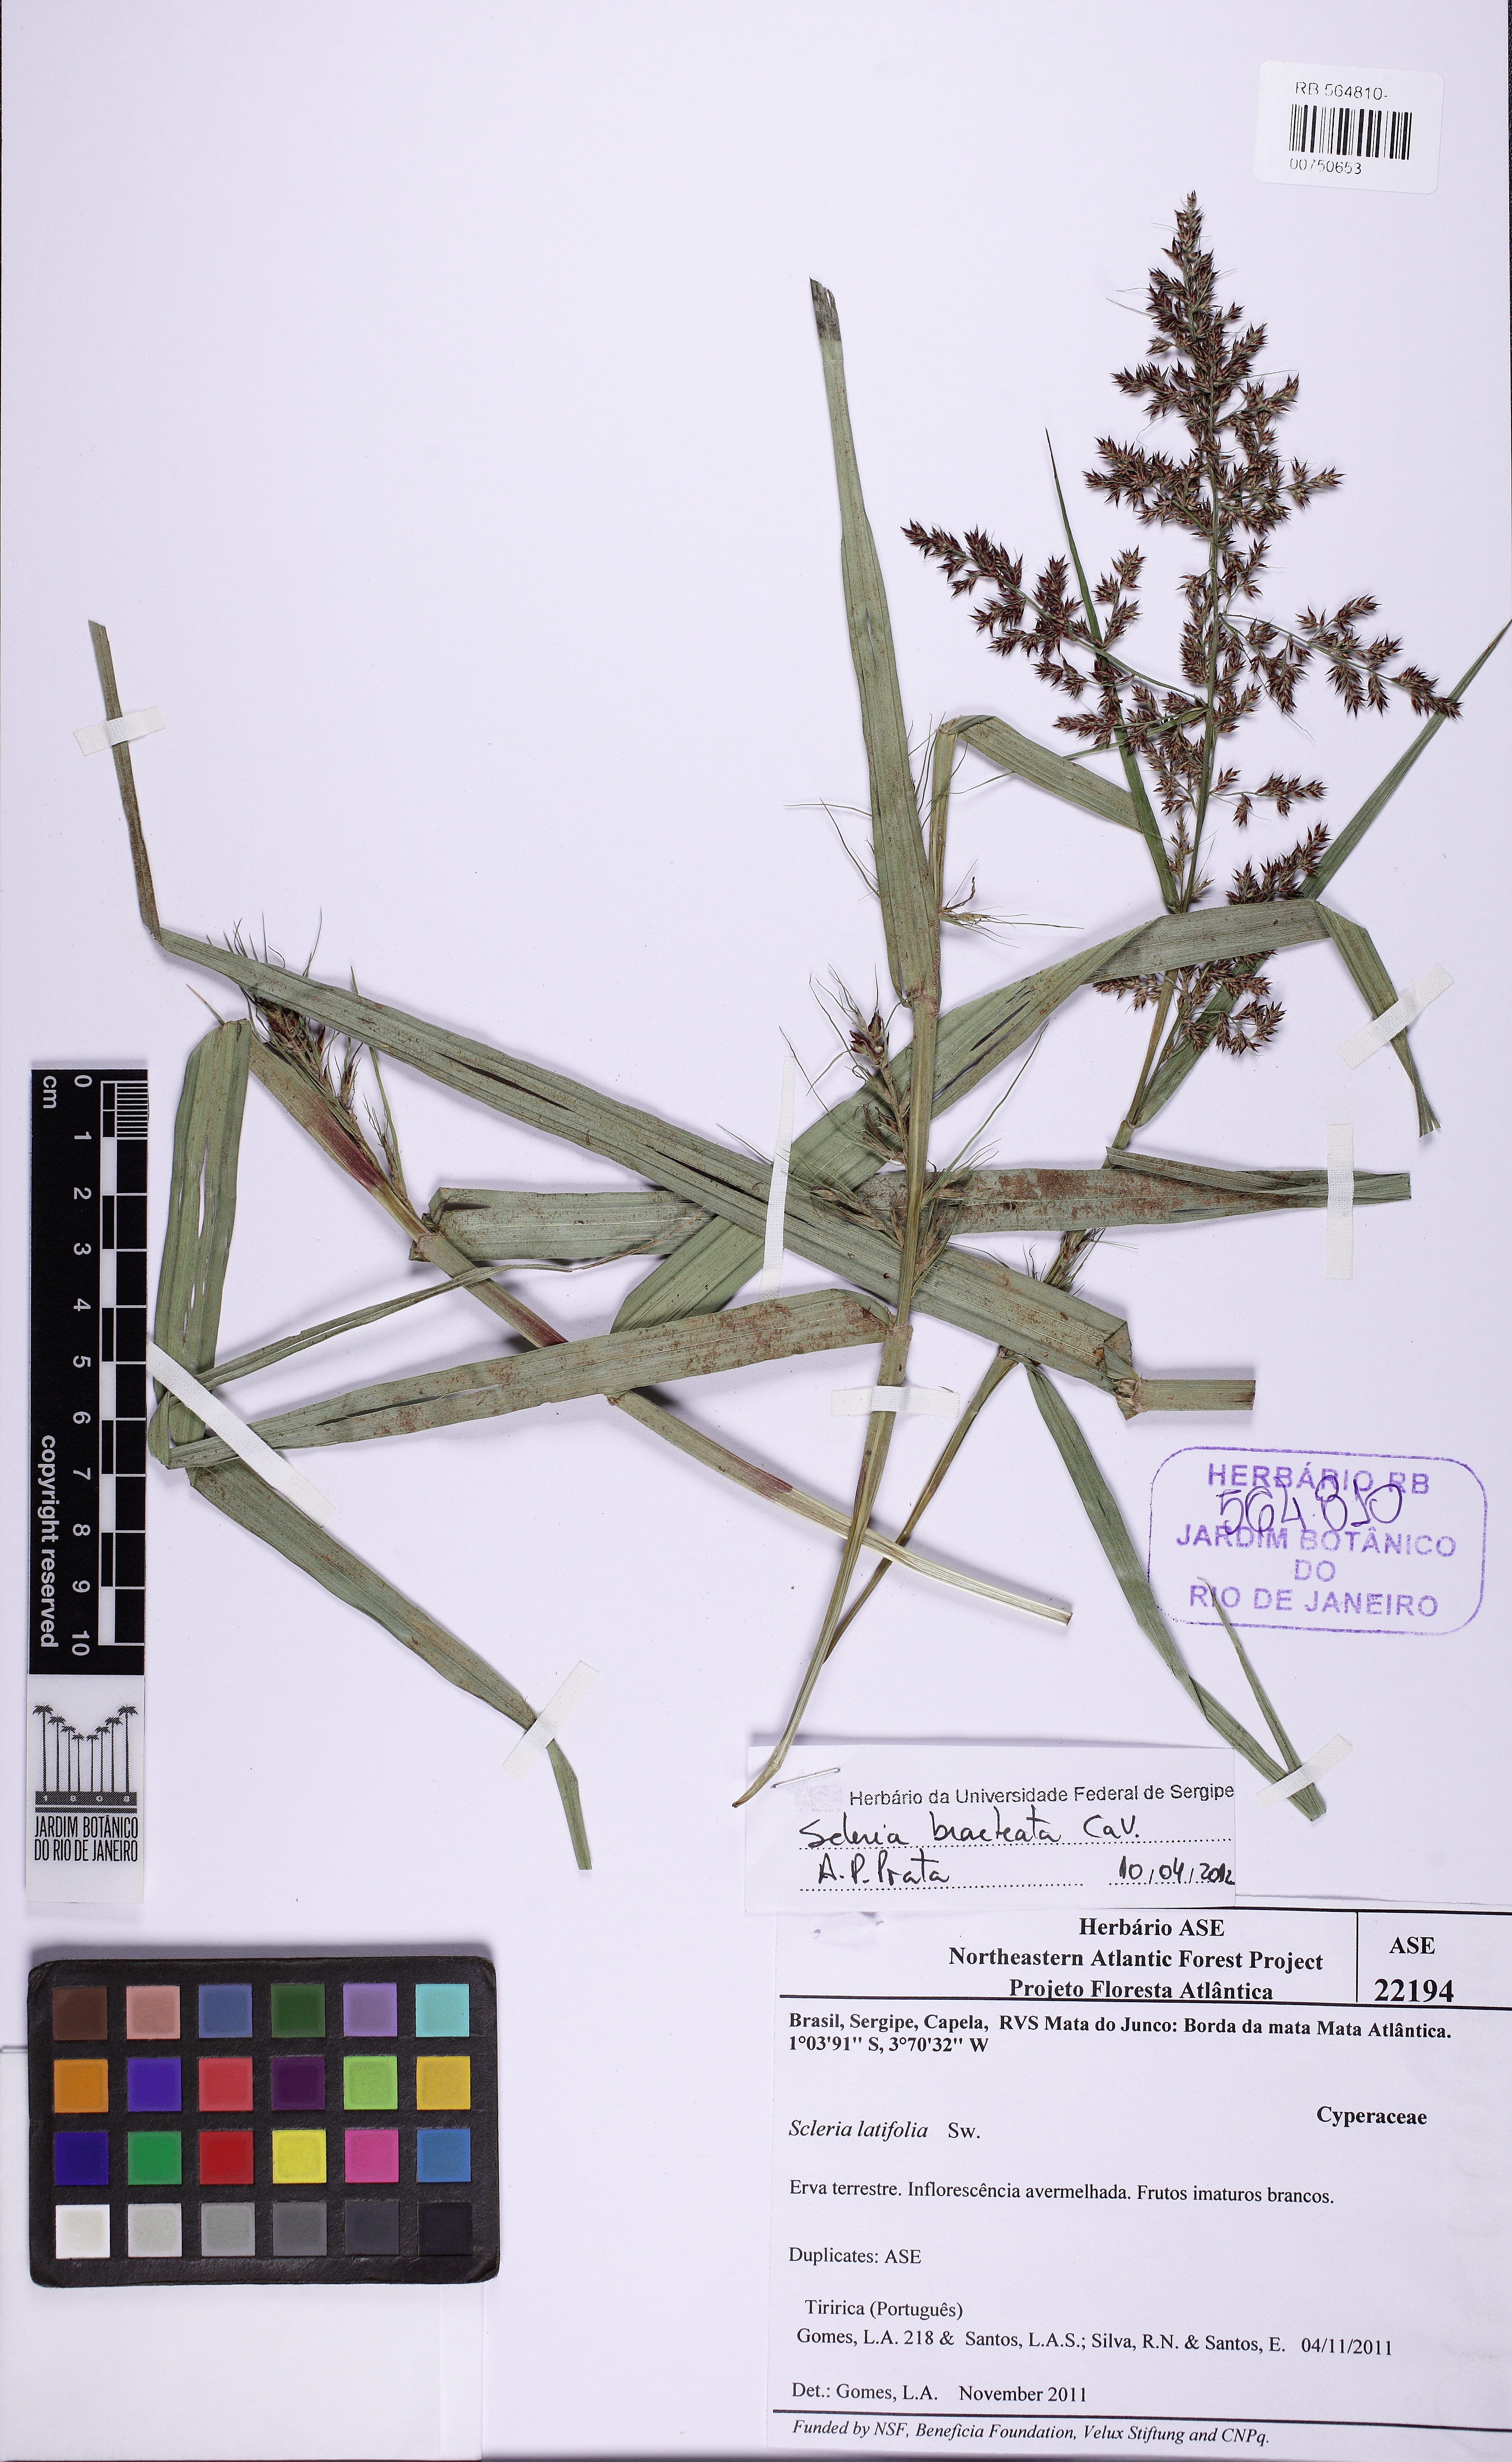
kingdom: Plantae
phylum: Tracheophyta
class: Liliopsida
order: Poales
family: Cyperaceae
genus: Scleria
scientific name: Scleria bracteata
